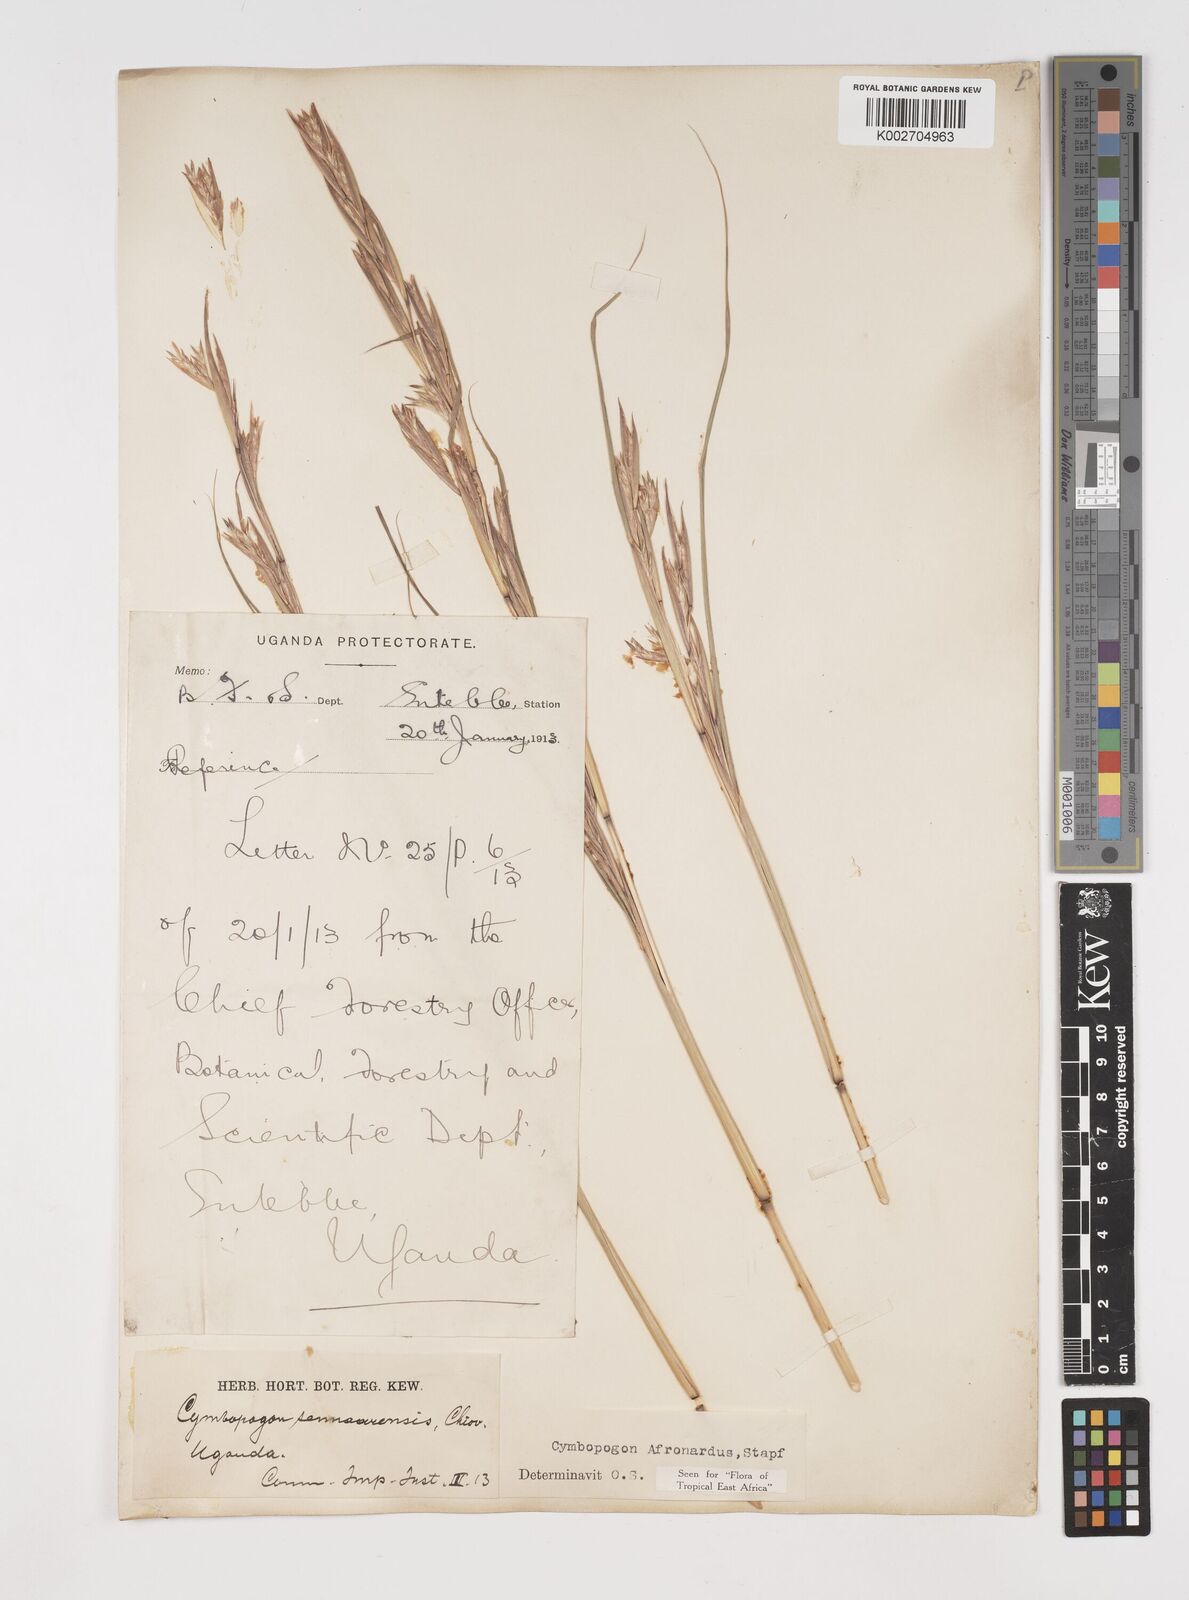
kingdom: Plantae
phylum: Tracheophyta
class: Liliopsida
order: Poales
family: Poaceae
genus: Cymbopogon
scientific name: Cymbopogon nardus
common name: Giant turpentine grass
